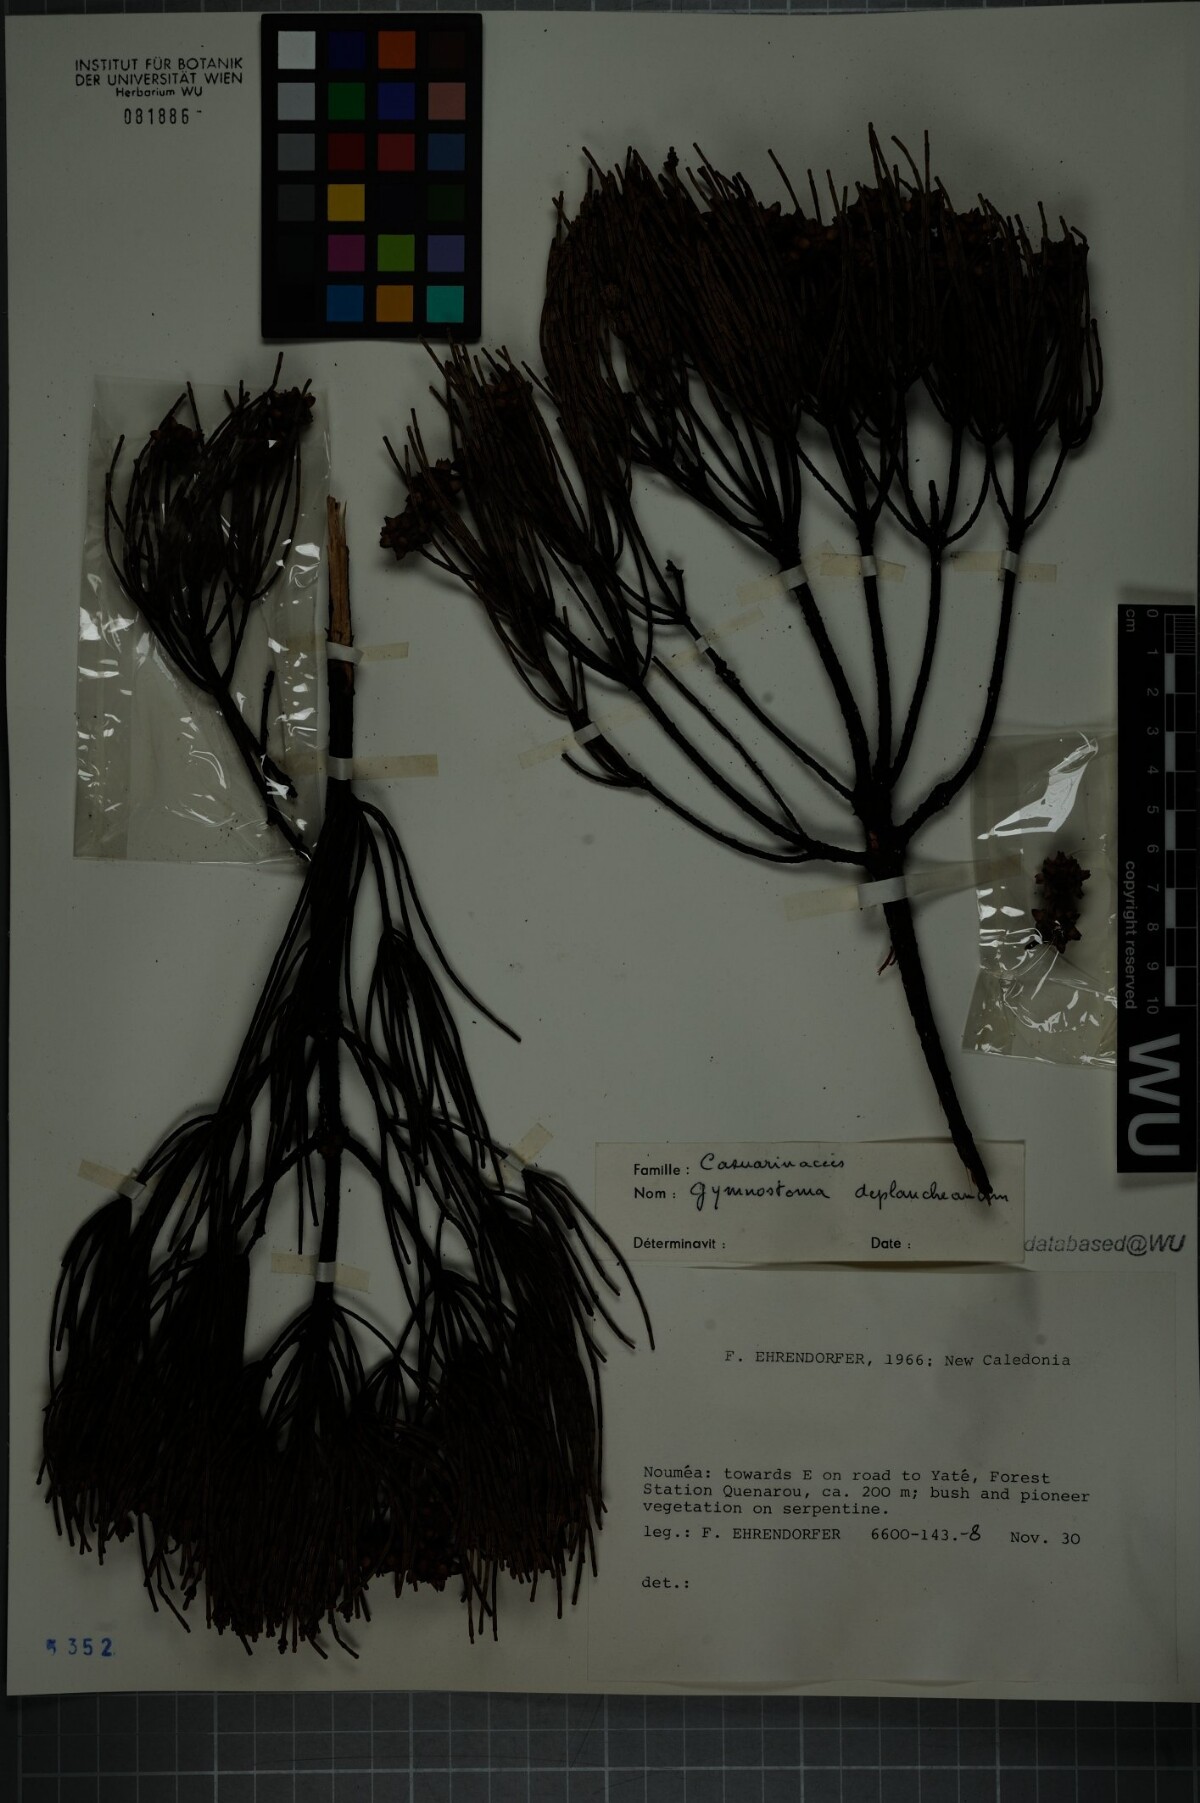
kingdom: Plantae
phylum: Tracheophyta
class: Magnoliopsida
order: Fagales
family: Casuarinaceae
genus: Gymnostoma
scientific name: Gymnostoma deplancheanum
